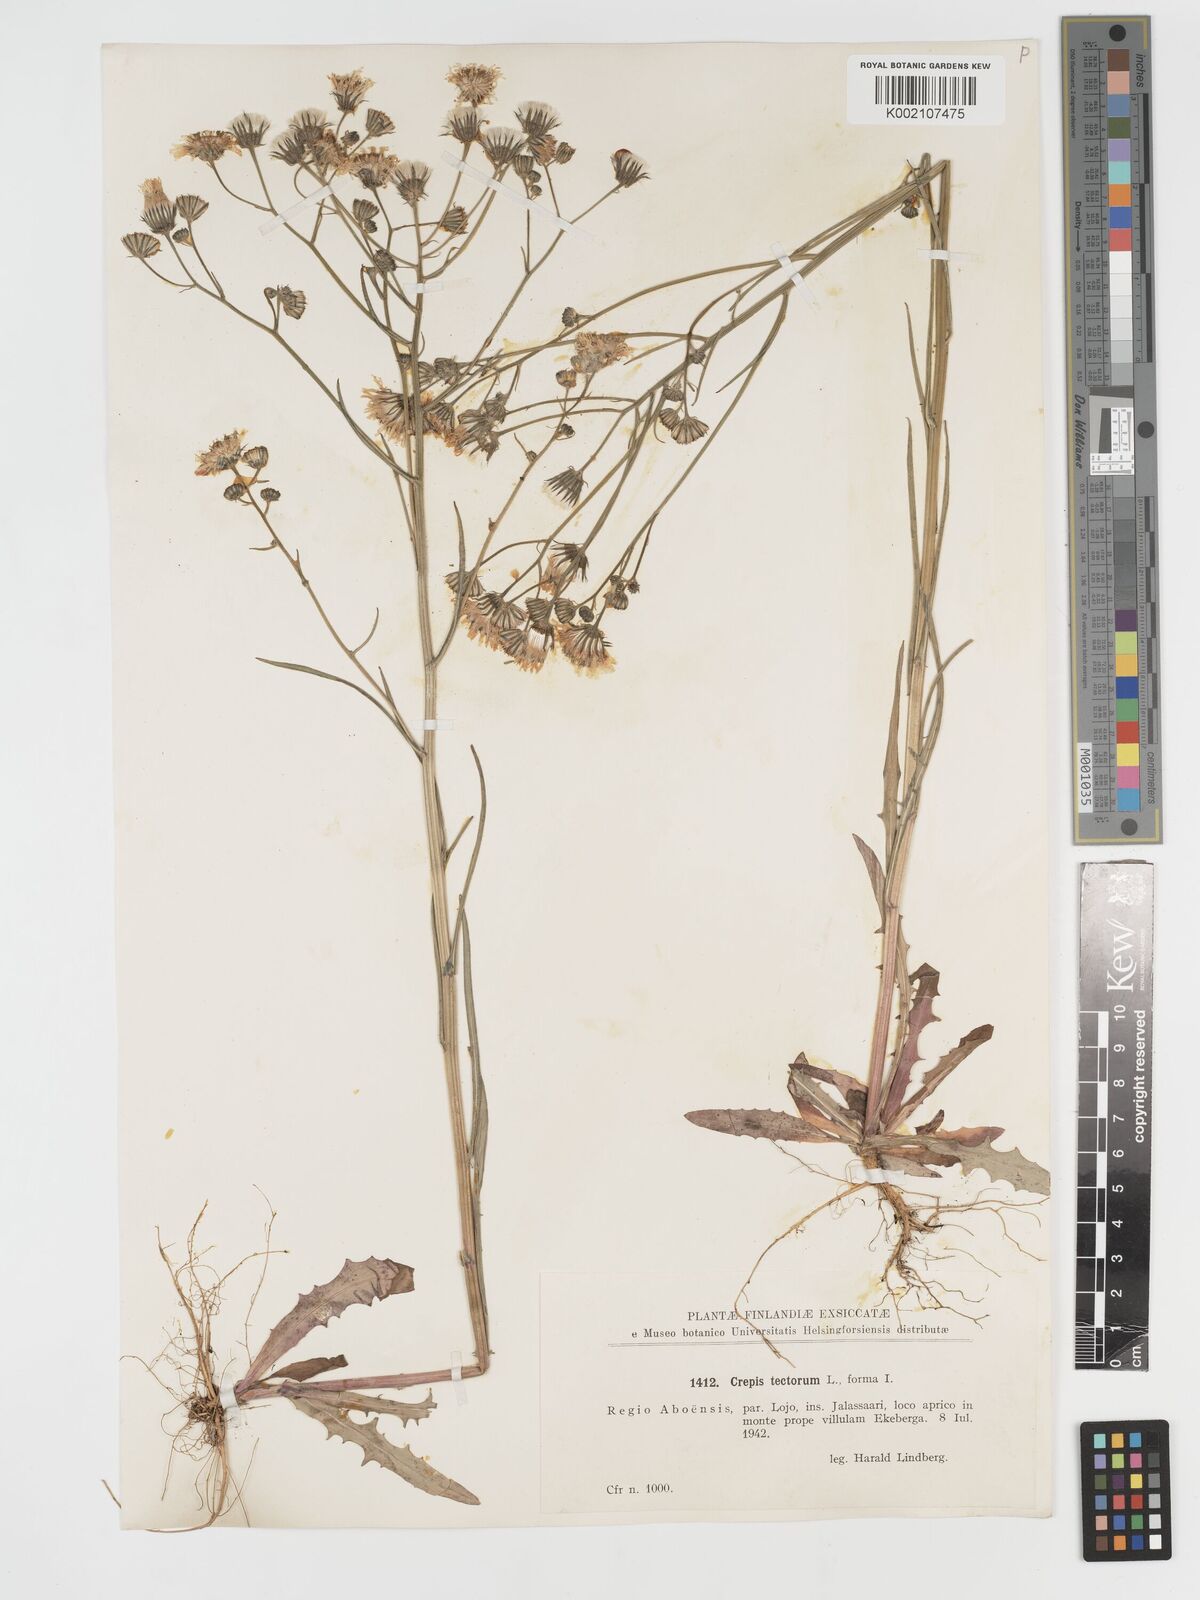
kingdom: Plantae
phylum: Tracheophyta
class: Magnoliopsida
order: Asterales
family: Asteraceae
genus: Crepis
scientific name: Crepis tectorum
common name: Narrow-leaved hawk's-beard
